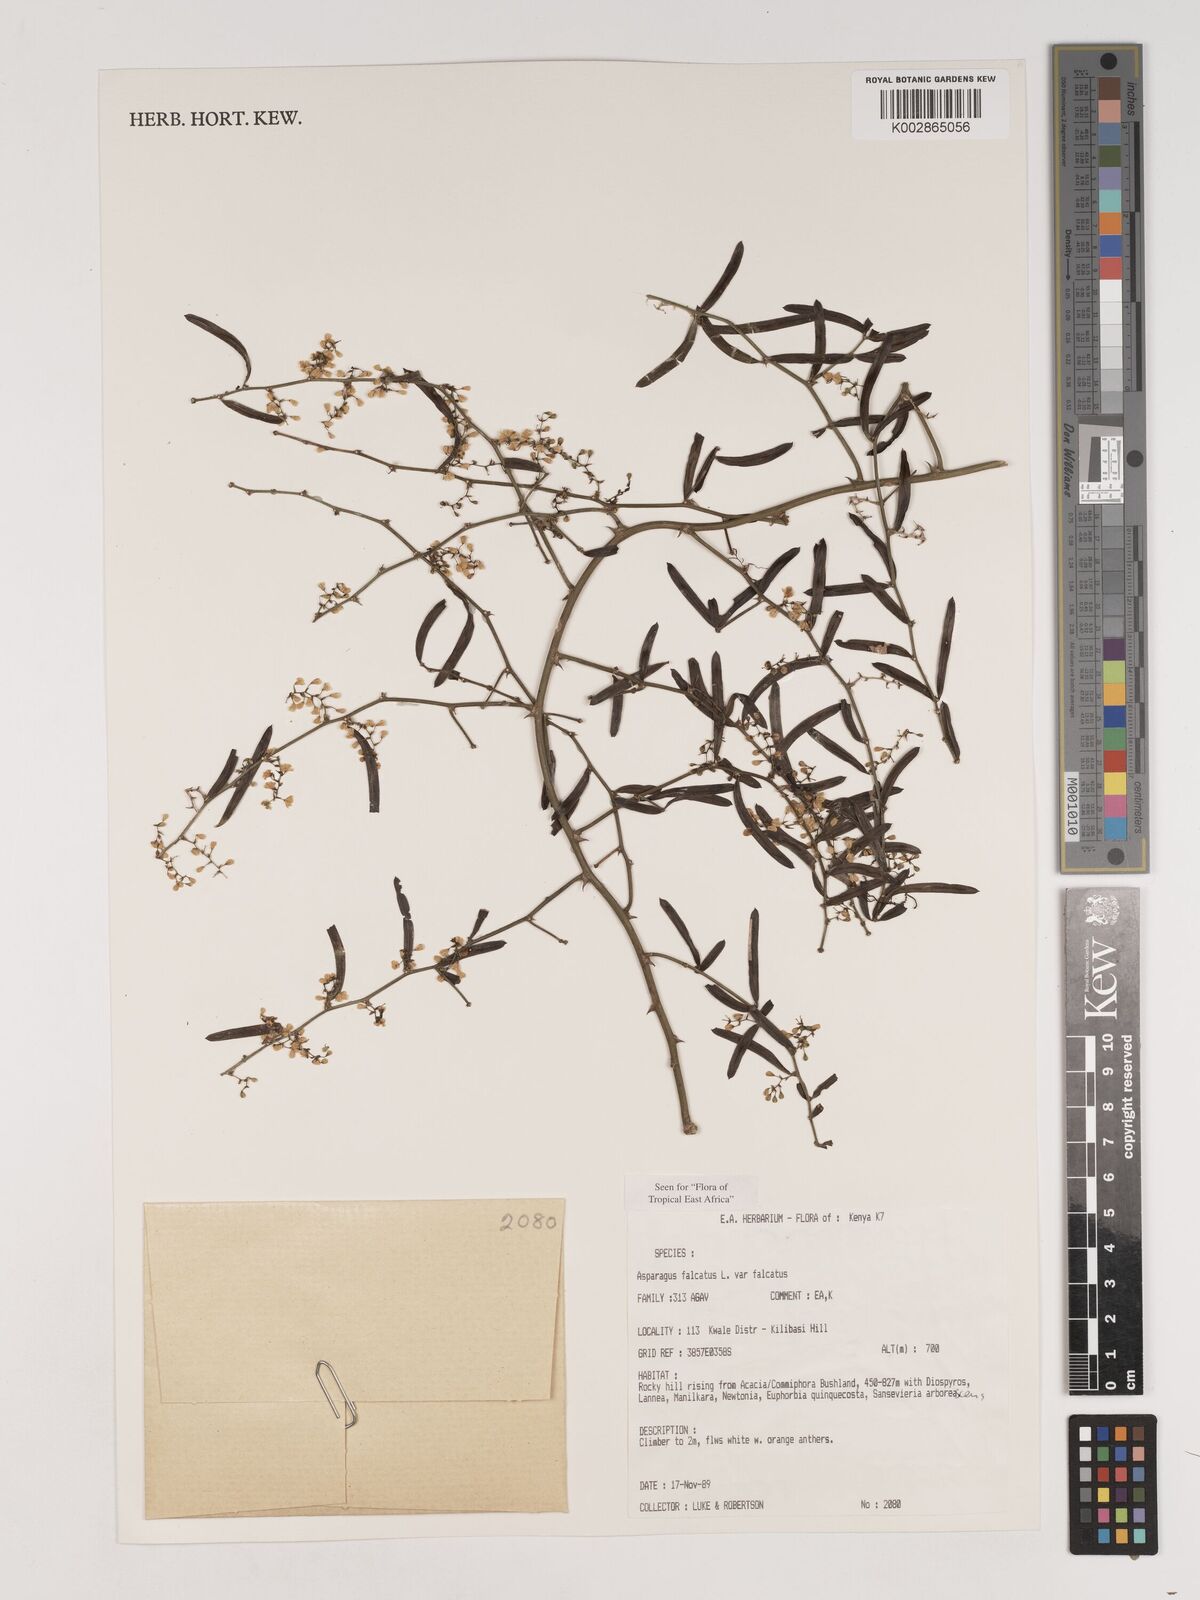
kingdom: Plantae
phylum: Tracheophyta
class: Liliopsida
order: Asparagales
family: Asparagaceae
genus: Asparagus
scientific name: Asparagus falcatus
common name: Asparagus
